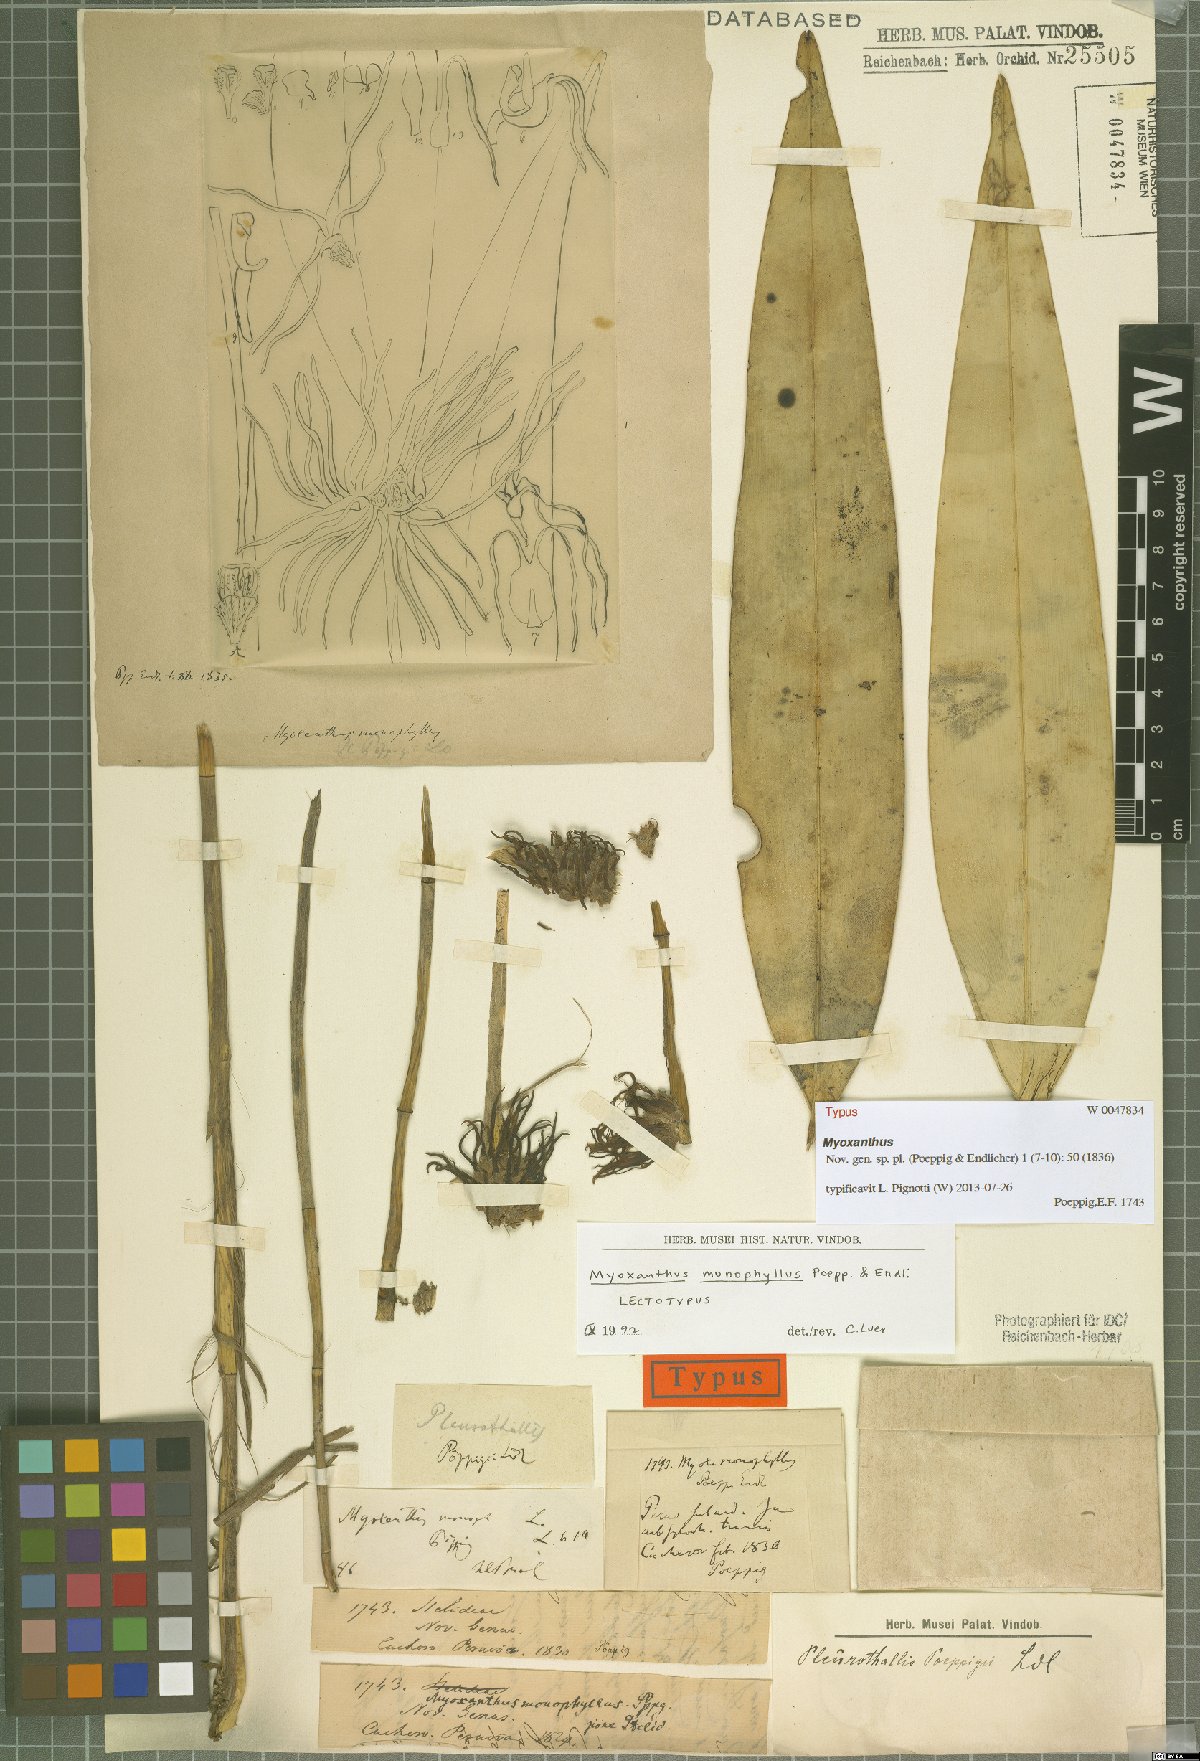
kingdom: Plantae
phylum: Tracheophyta
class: Liliopsida
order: Asparagales
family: Orchidaceae
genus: Myoxanthus
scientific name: Myoxanthus monophyllus
